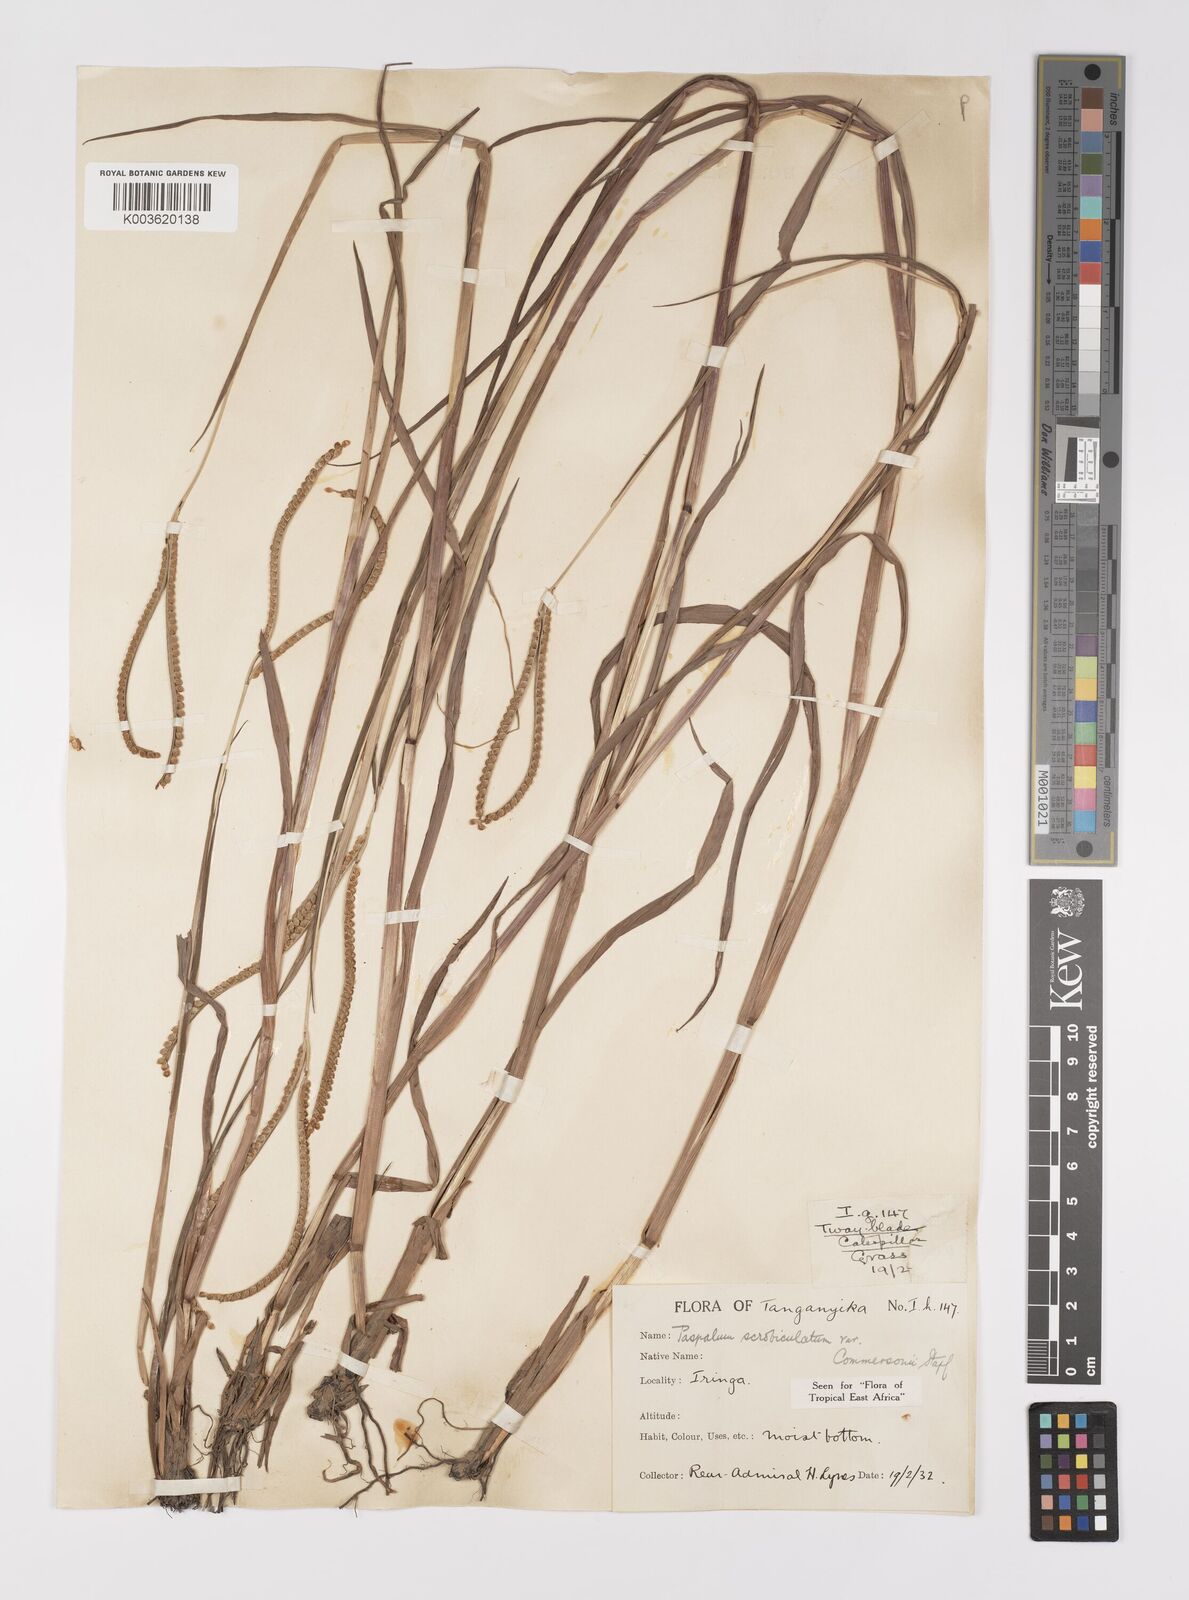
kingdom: Plantae
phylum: Tracheophyta
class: Liliopsida
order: Poales
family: Poaceae
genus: Paspalum
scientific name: Paspalum scrobiculatum
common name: Kodo millet
